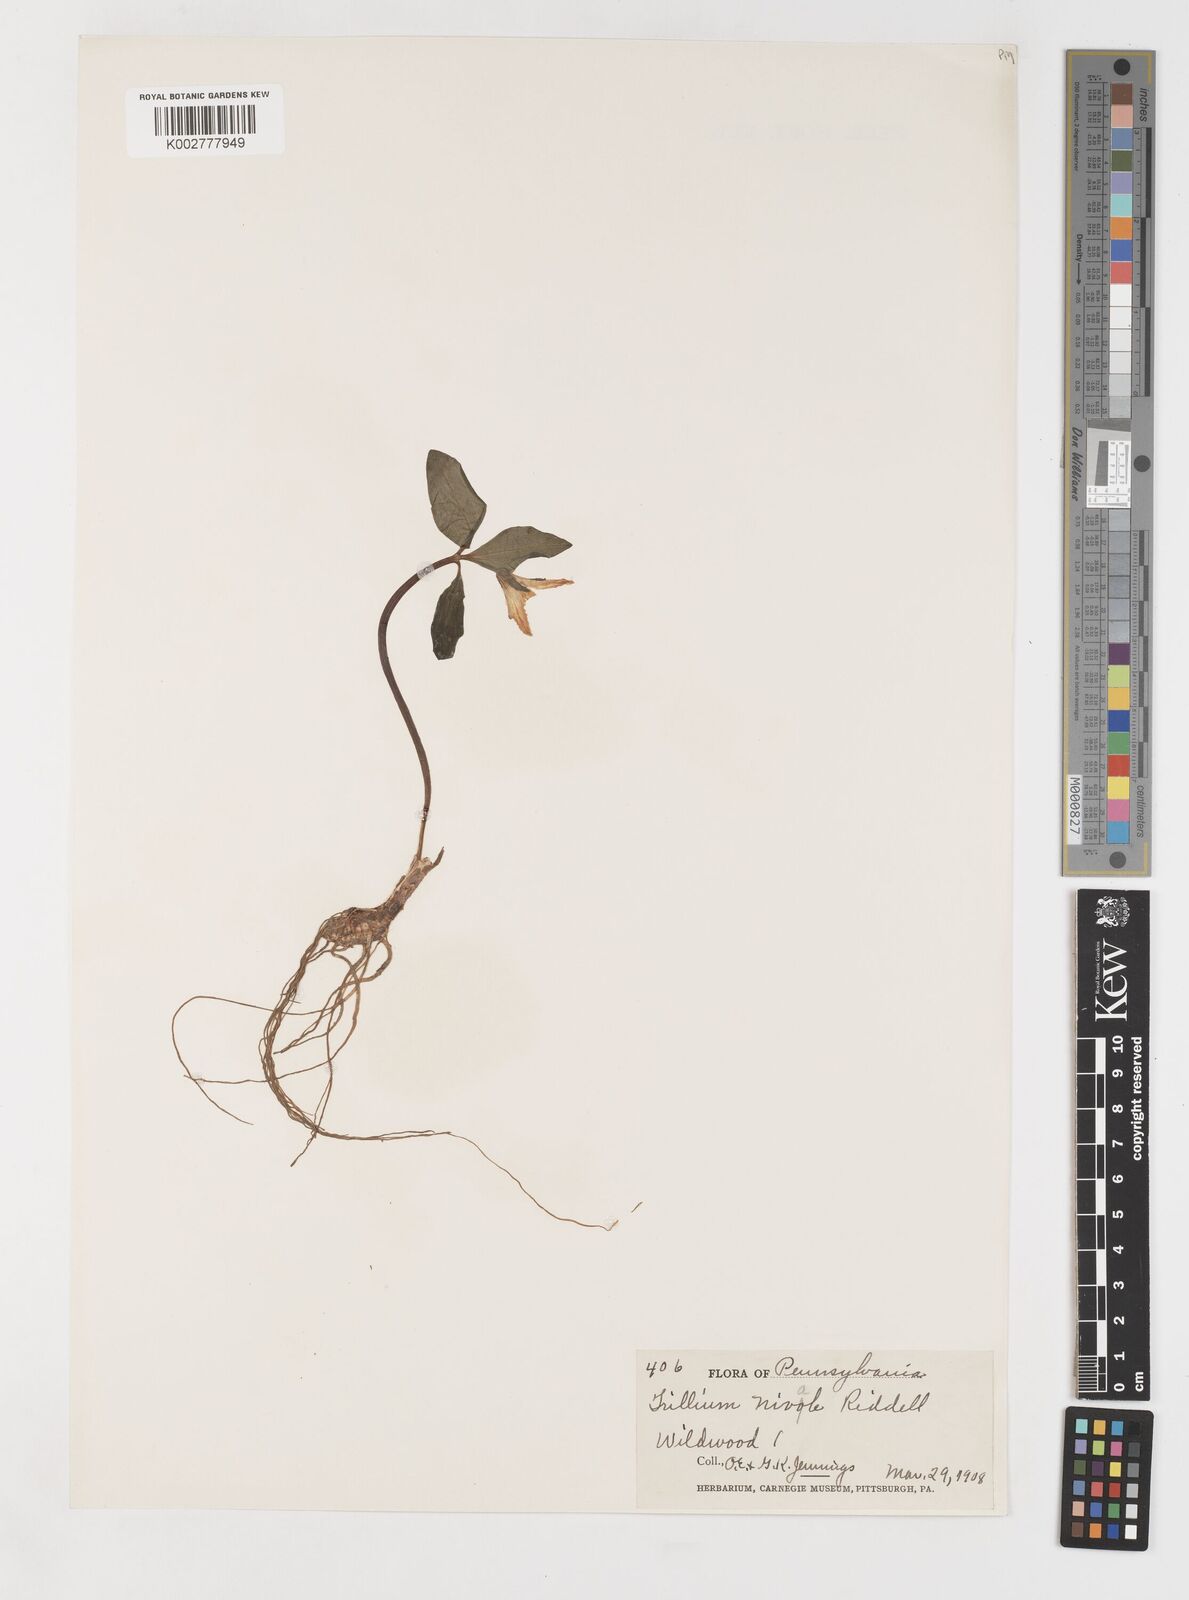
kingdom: Plantae
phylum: Tracheophyta
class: Liliopsida
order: Liliales
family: Melanthiaceae
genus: Trillium
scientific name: Trillium nivale
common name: Dwarf white trillium
